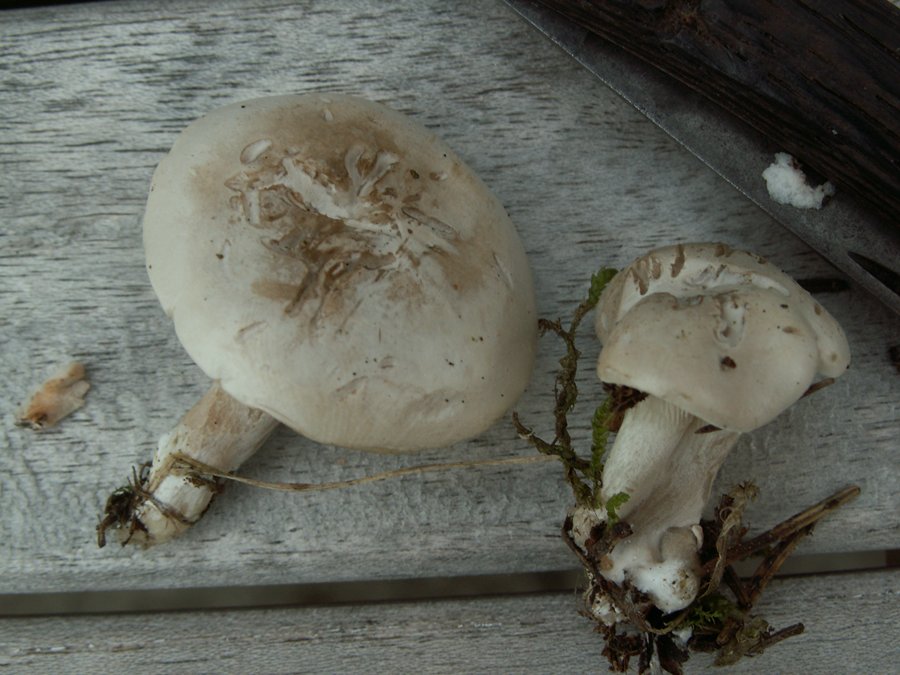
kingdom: Fungi
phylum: Basidiomycota
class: Agaricomycetes
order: Agaricales
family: Entolomataceae
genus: Clitopilus
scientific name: Clitopilus prunulus
